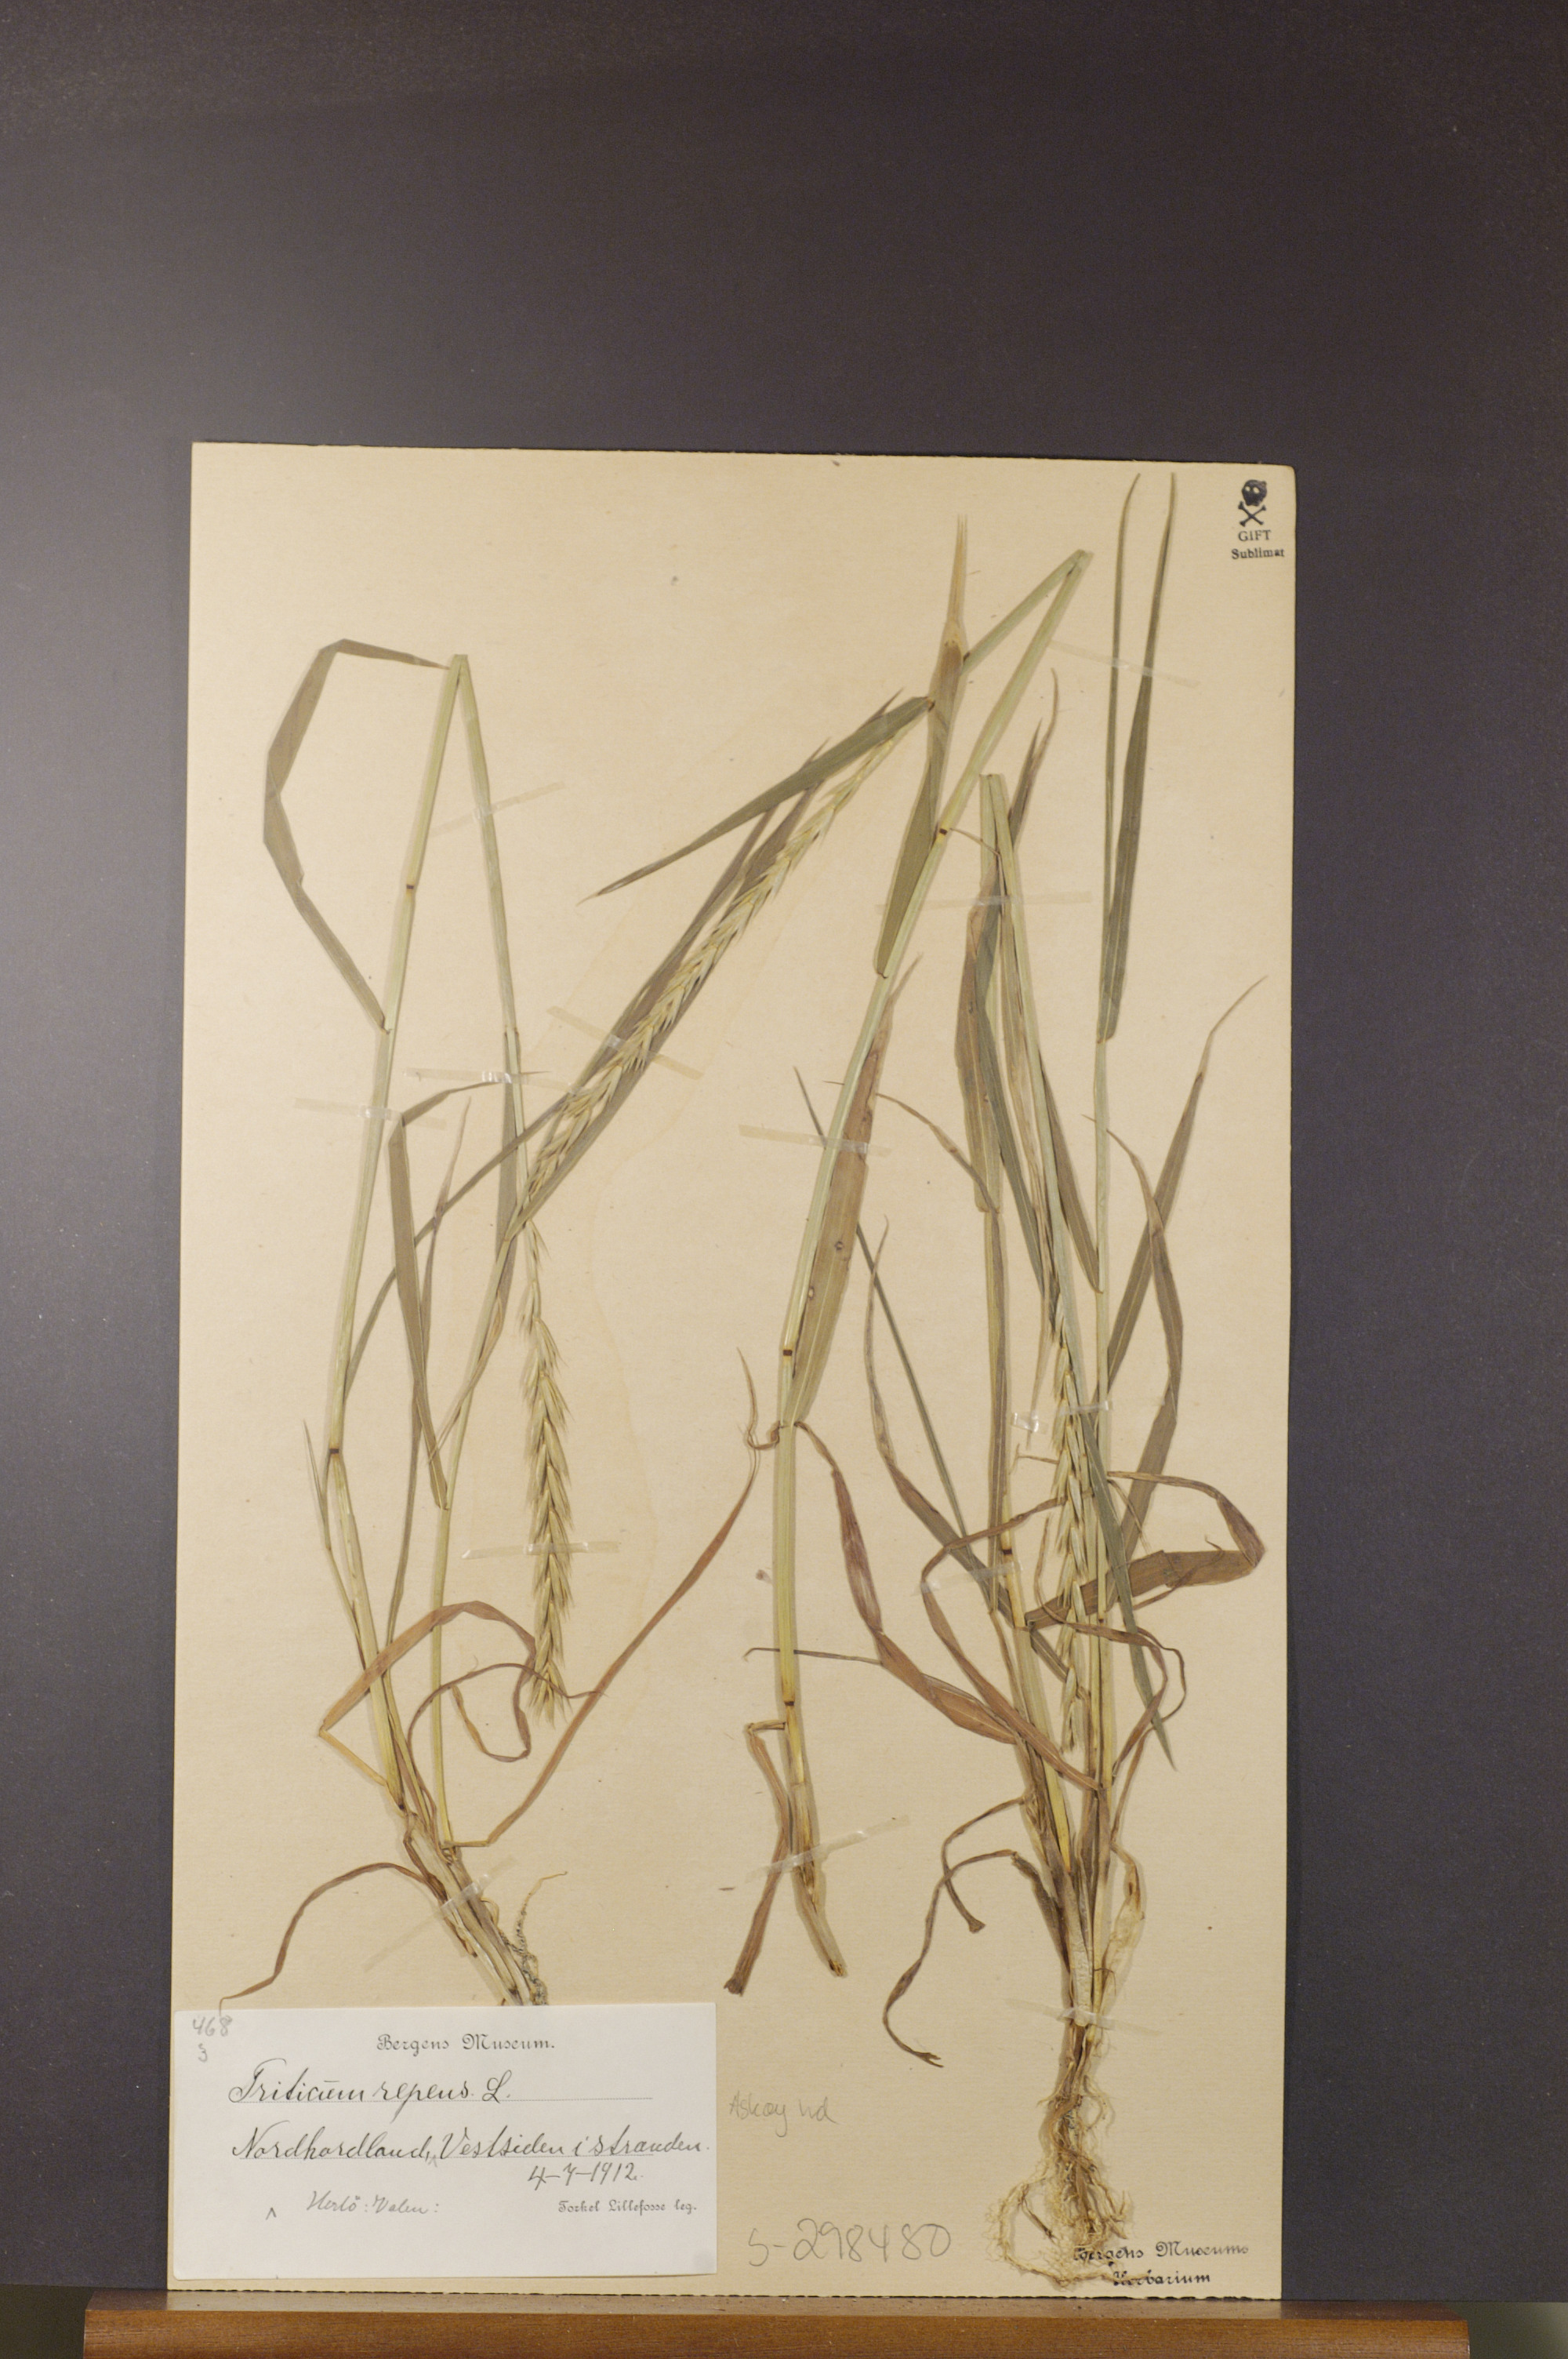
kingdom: Plantae
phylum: Tracheophyta
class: Liliopsida
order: Poales
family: Poaceae
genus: Elymus
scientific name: Elymus repens
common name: Quackgrass
